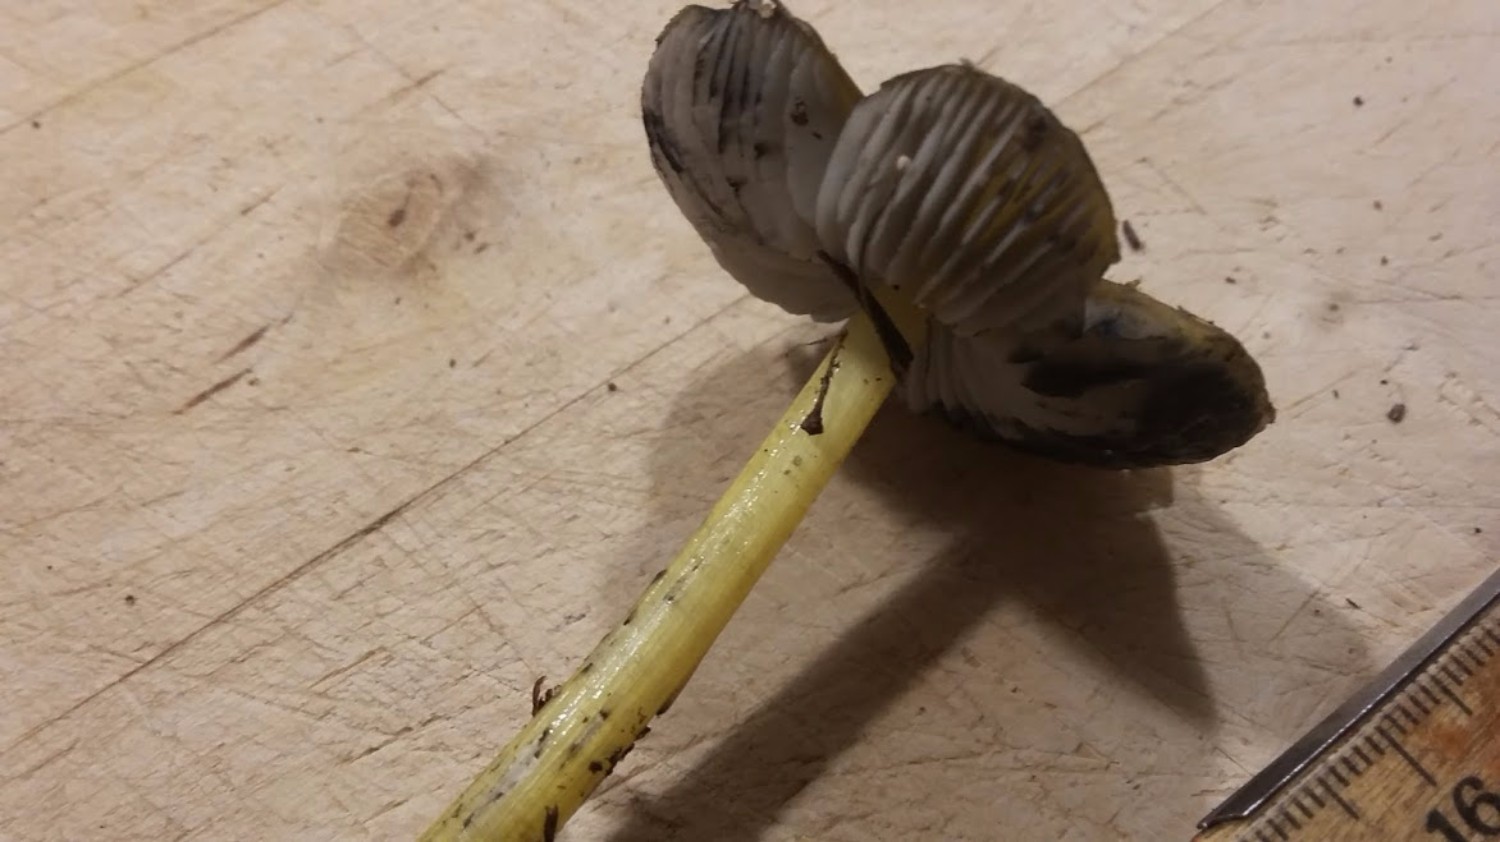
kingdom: Fungi
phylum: Basidiomycota
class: Agaricomycetes
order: Agaricales
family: Hygrophoraceae
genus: Hygrocybe
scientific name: Hygrocybe conica
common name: kegle-vokshat
